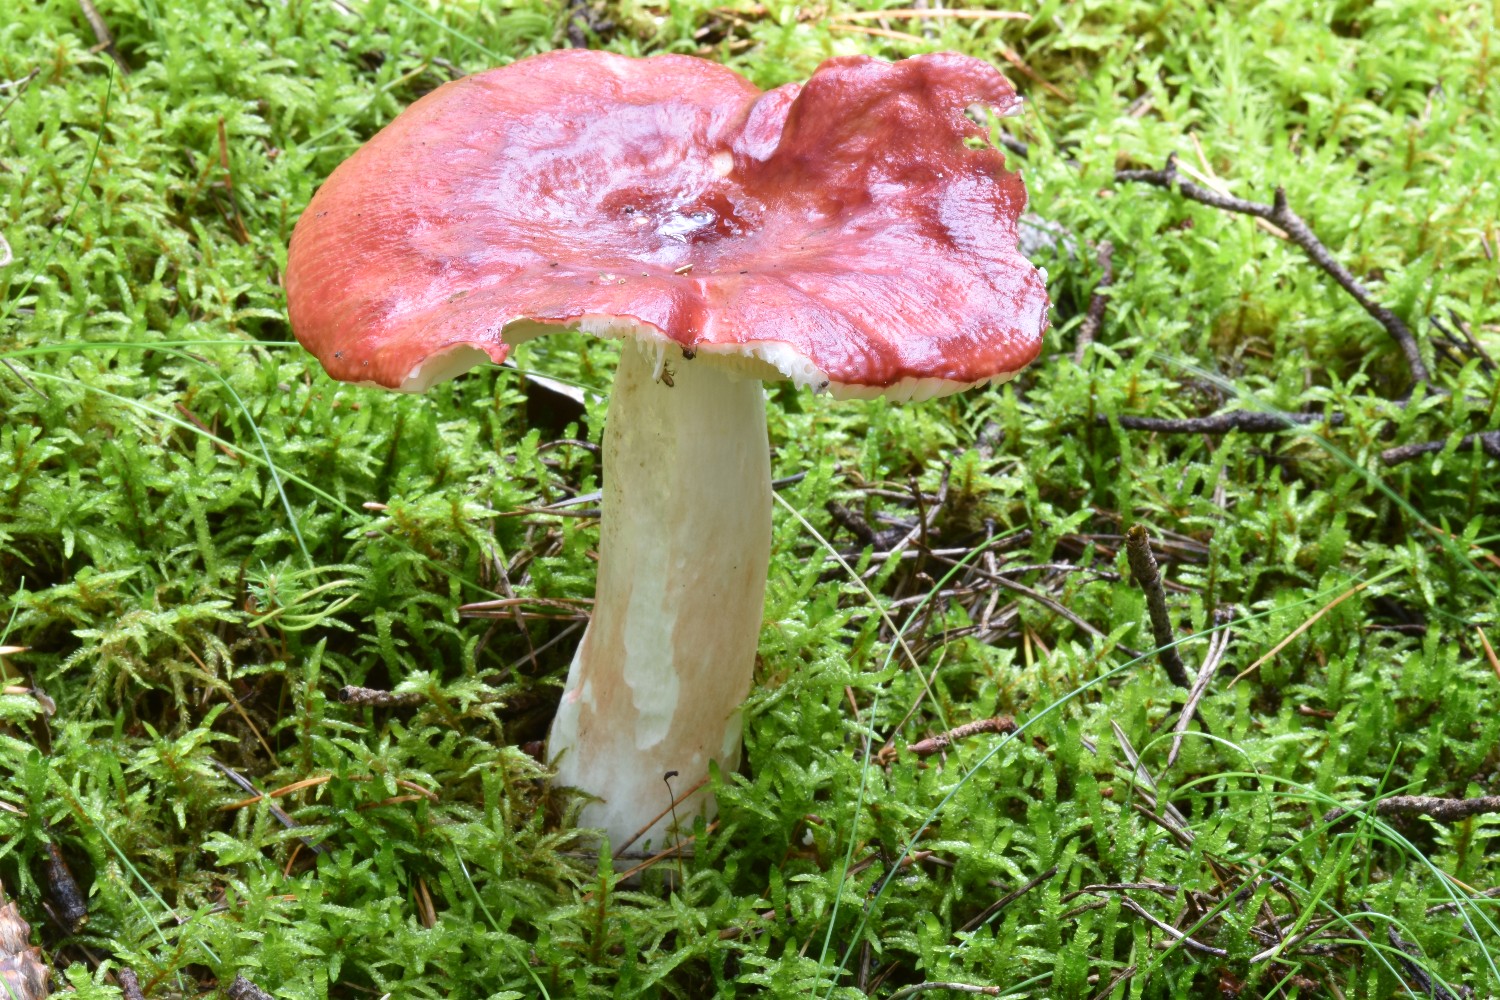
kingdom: Fungi
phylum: Basidiomycota
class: Agaricomycetes
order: Russulales
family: Russulaceae
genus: Russula
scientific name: Russula paludosa
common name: prægtig skørhat
